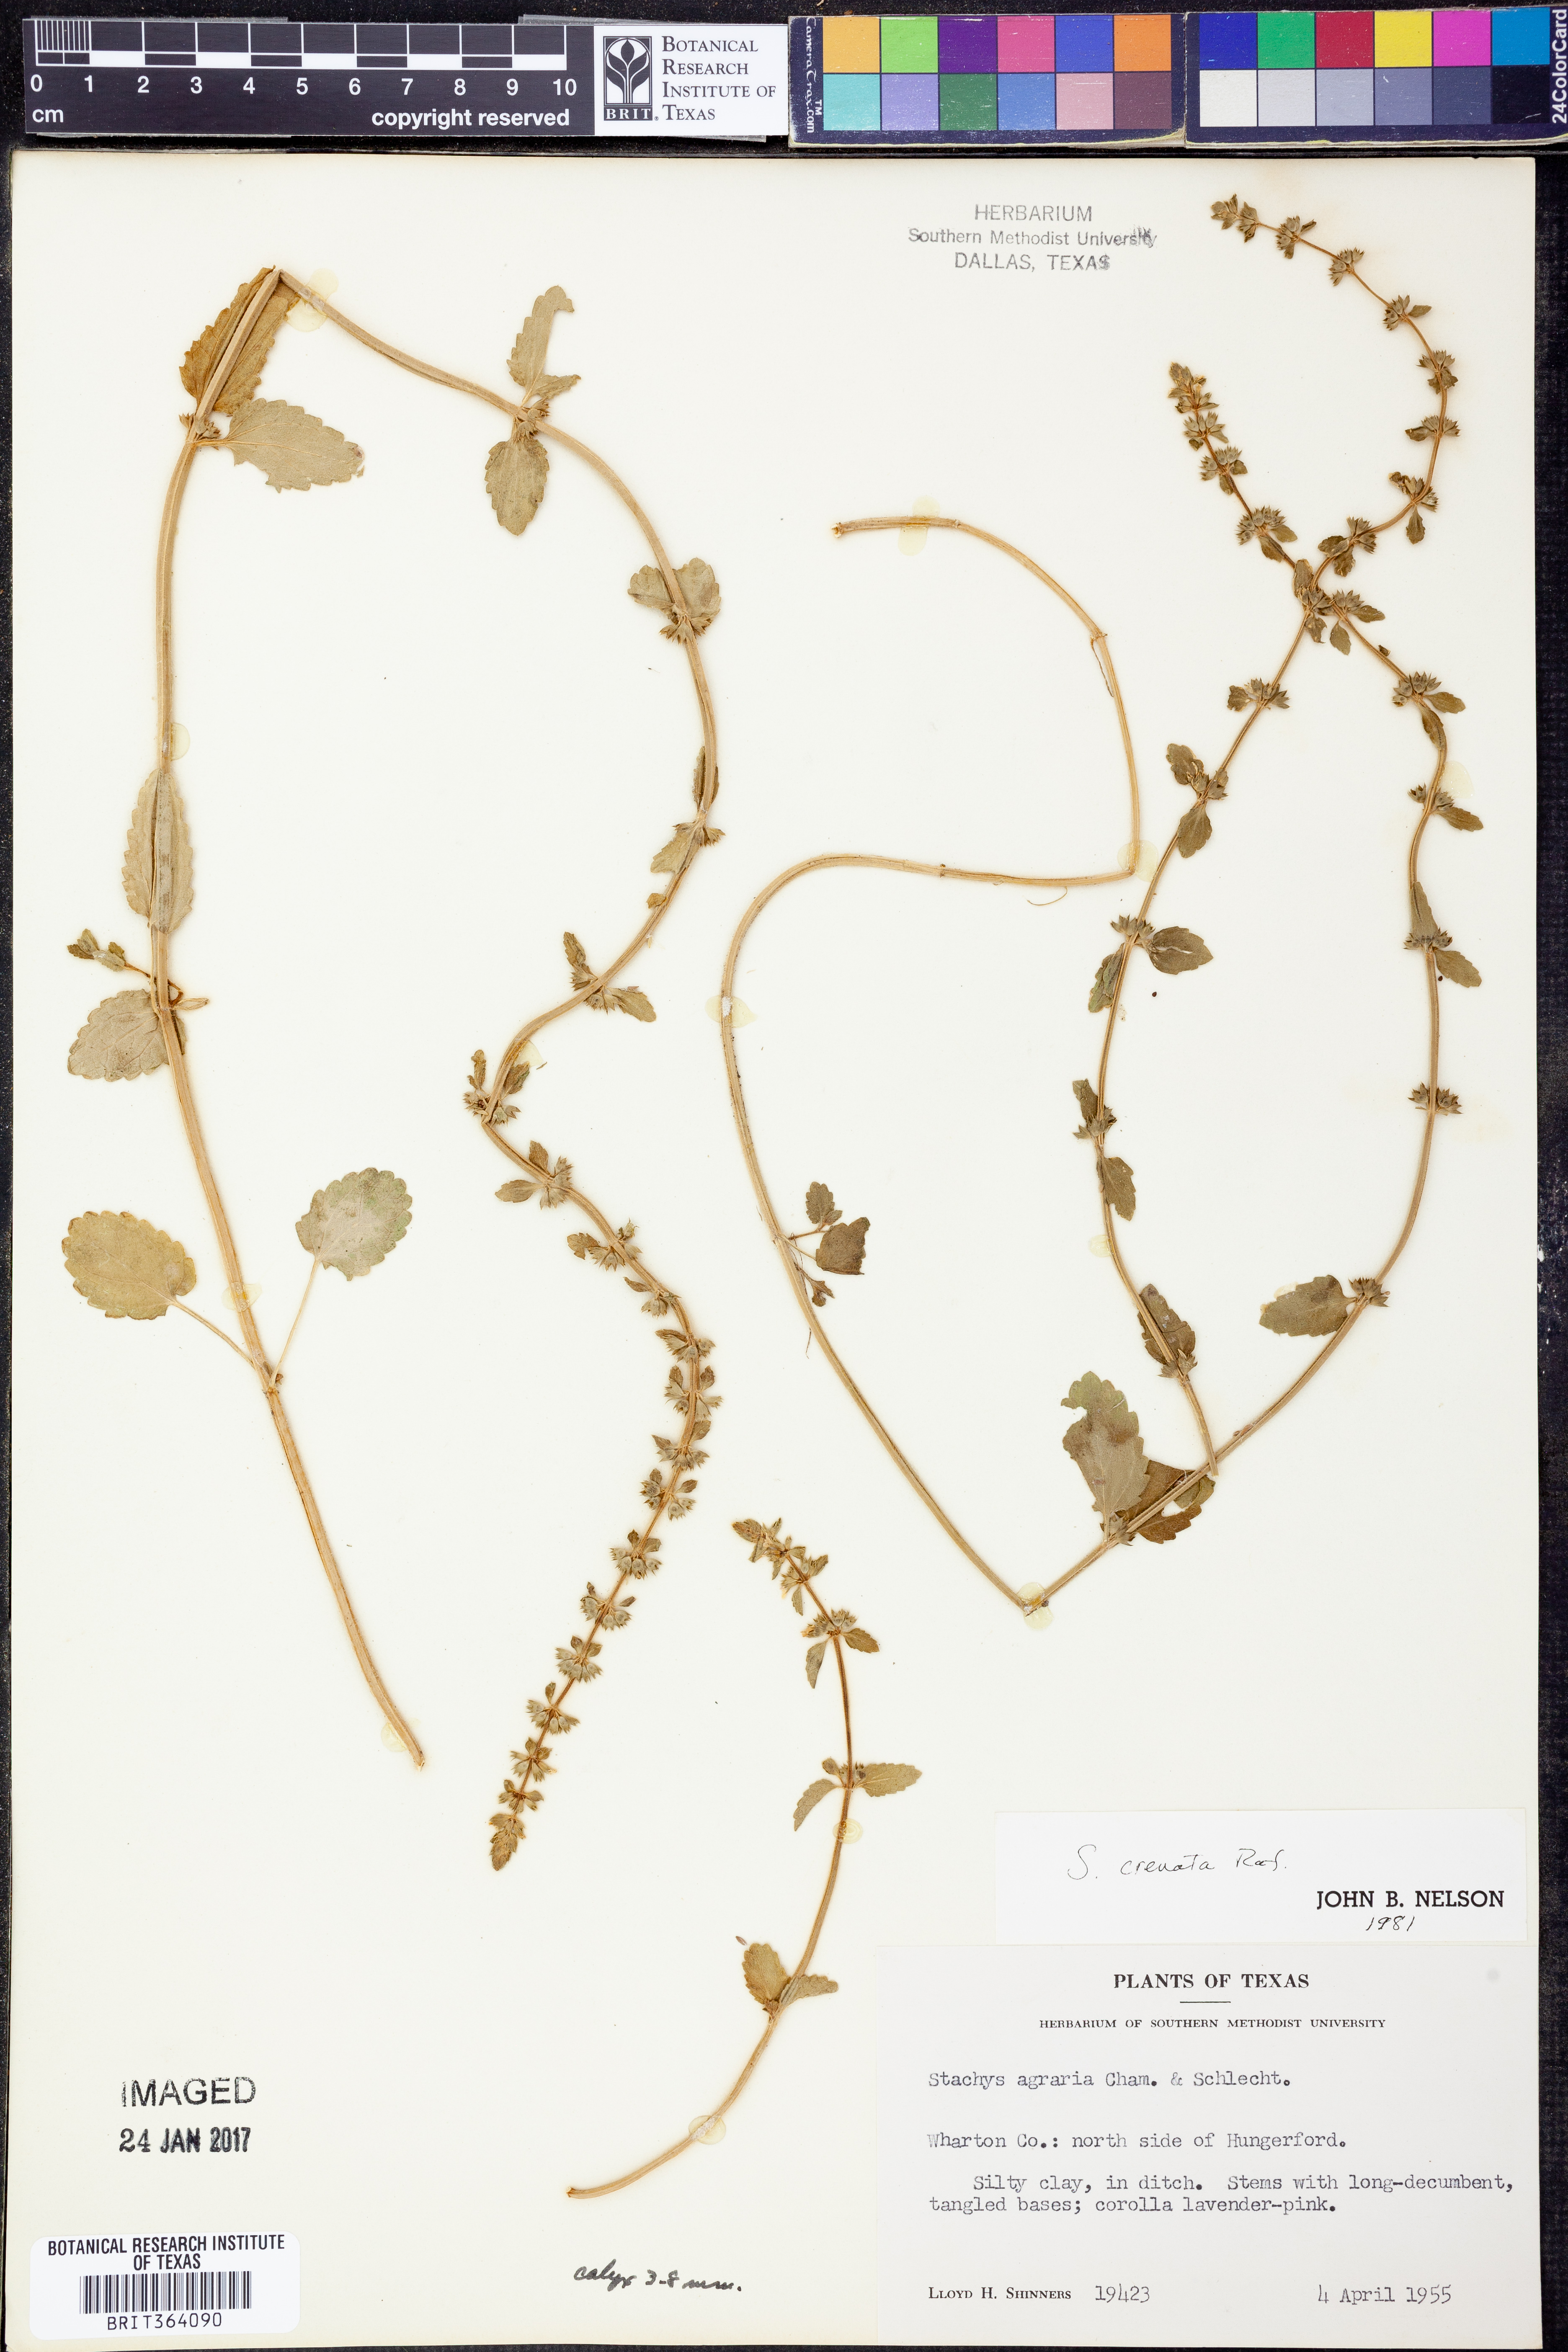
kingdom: Plantae
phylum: Tracheophyta
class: Magnoliopsida
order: Lamiales
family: Lamiaceae
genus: Stachys
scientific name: Stachys agraria
